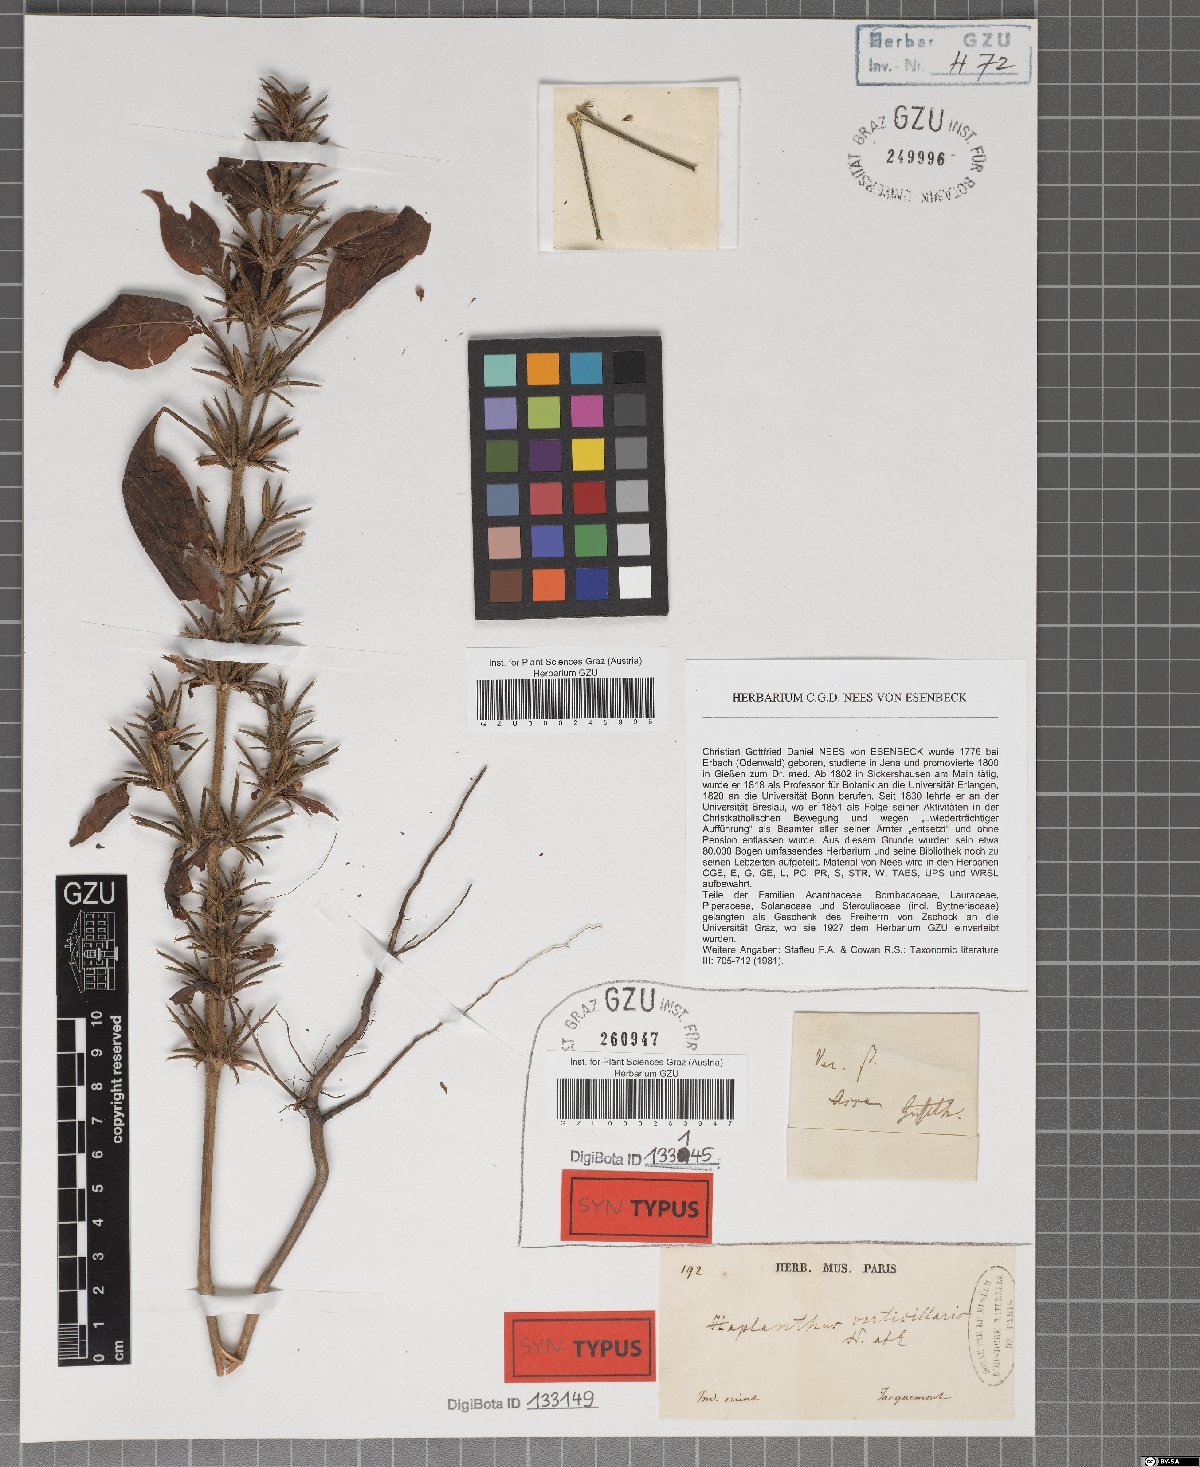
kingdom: Plantae
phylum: Tracheophyta
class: Magnoliopsida
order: Lamiales
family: Acanthaceae
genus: Haplanthodes
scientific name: Haplanthodes verticillatus
